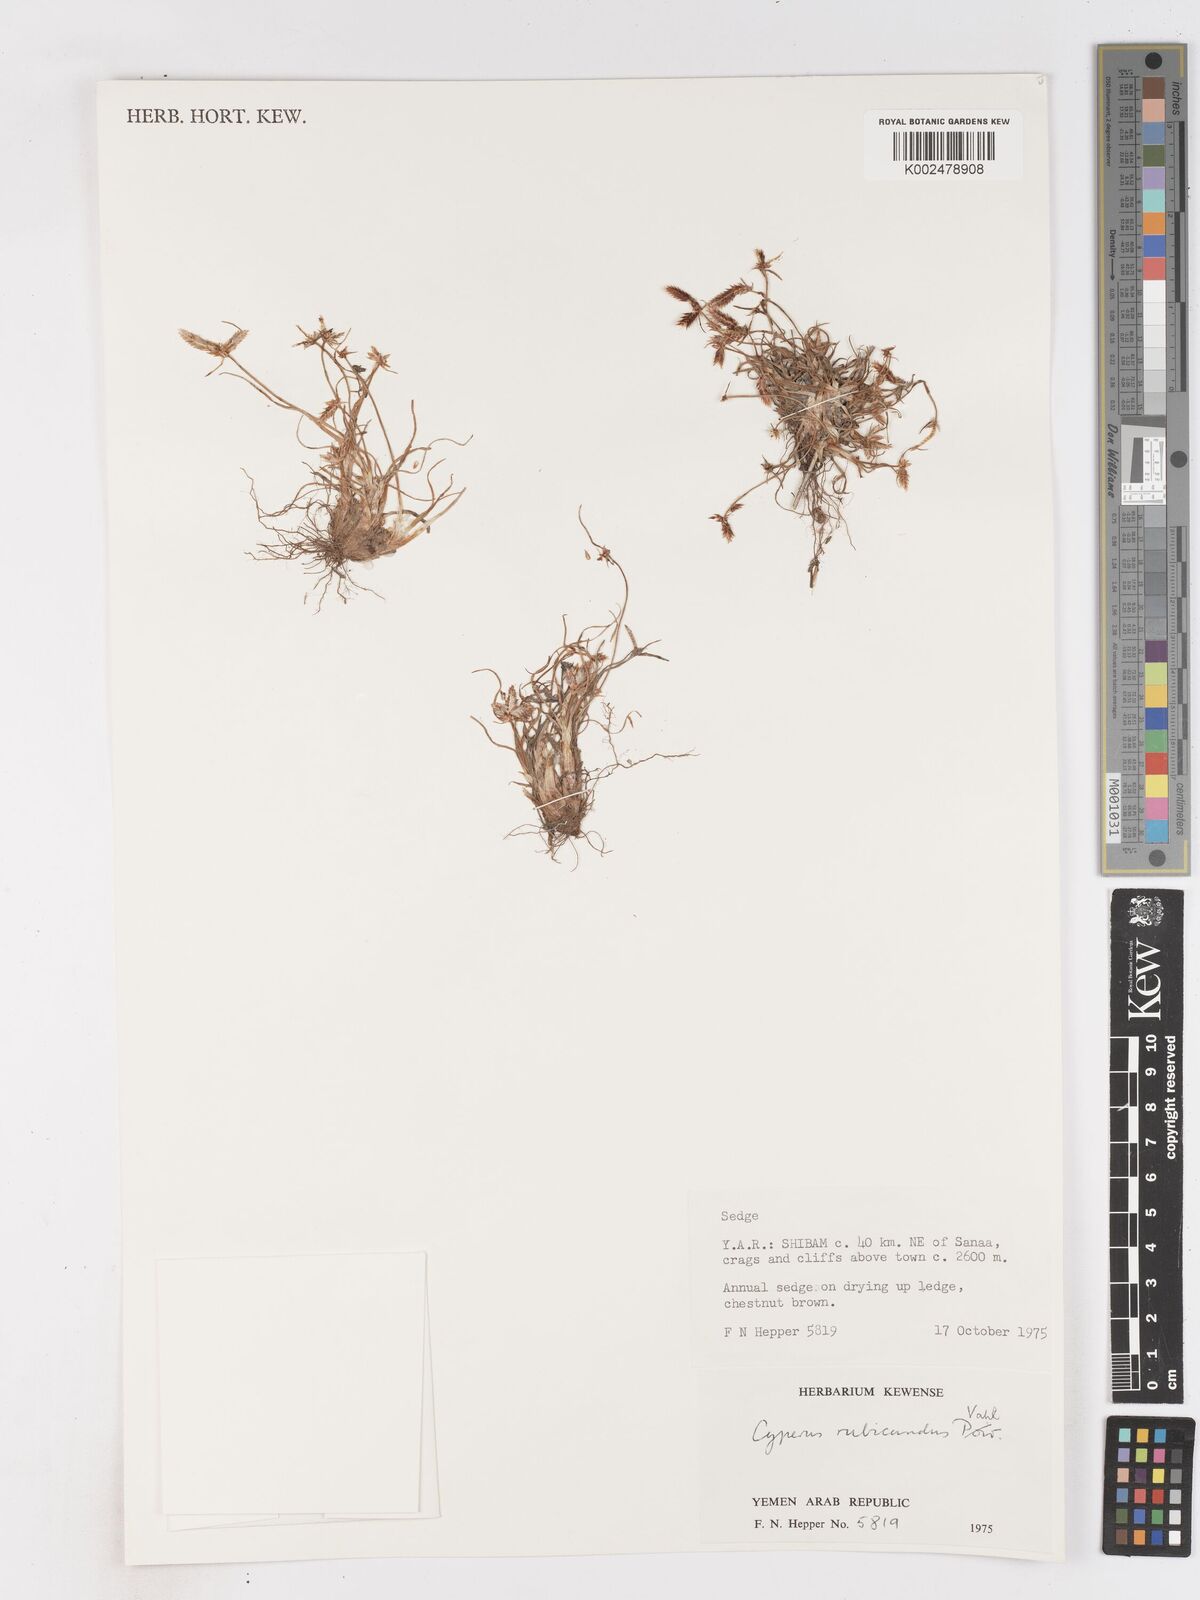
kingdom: Plantae
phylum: Tracheophyta
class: Liliopsida
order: Poales
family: Cyperaceae
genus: Cyperus
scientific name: Cyperus rubicundus
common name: Coco-grass
